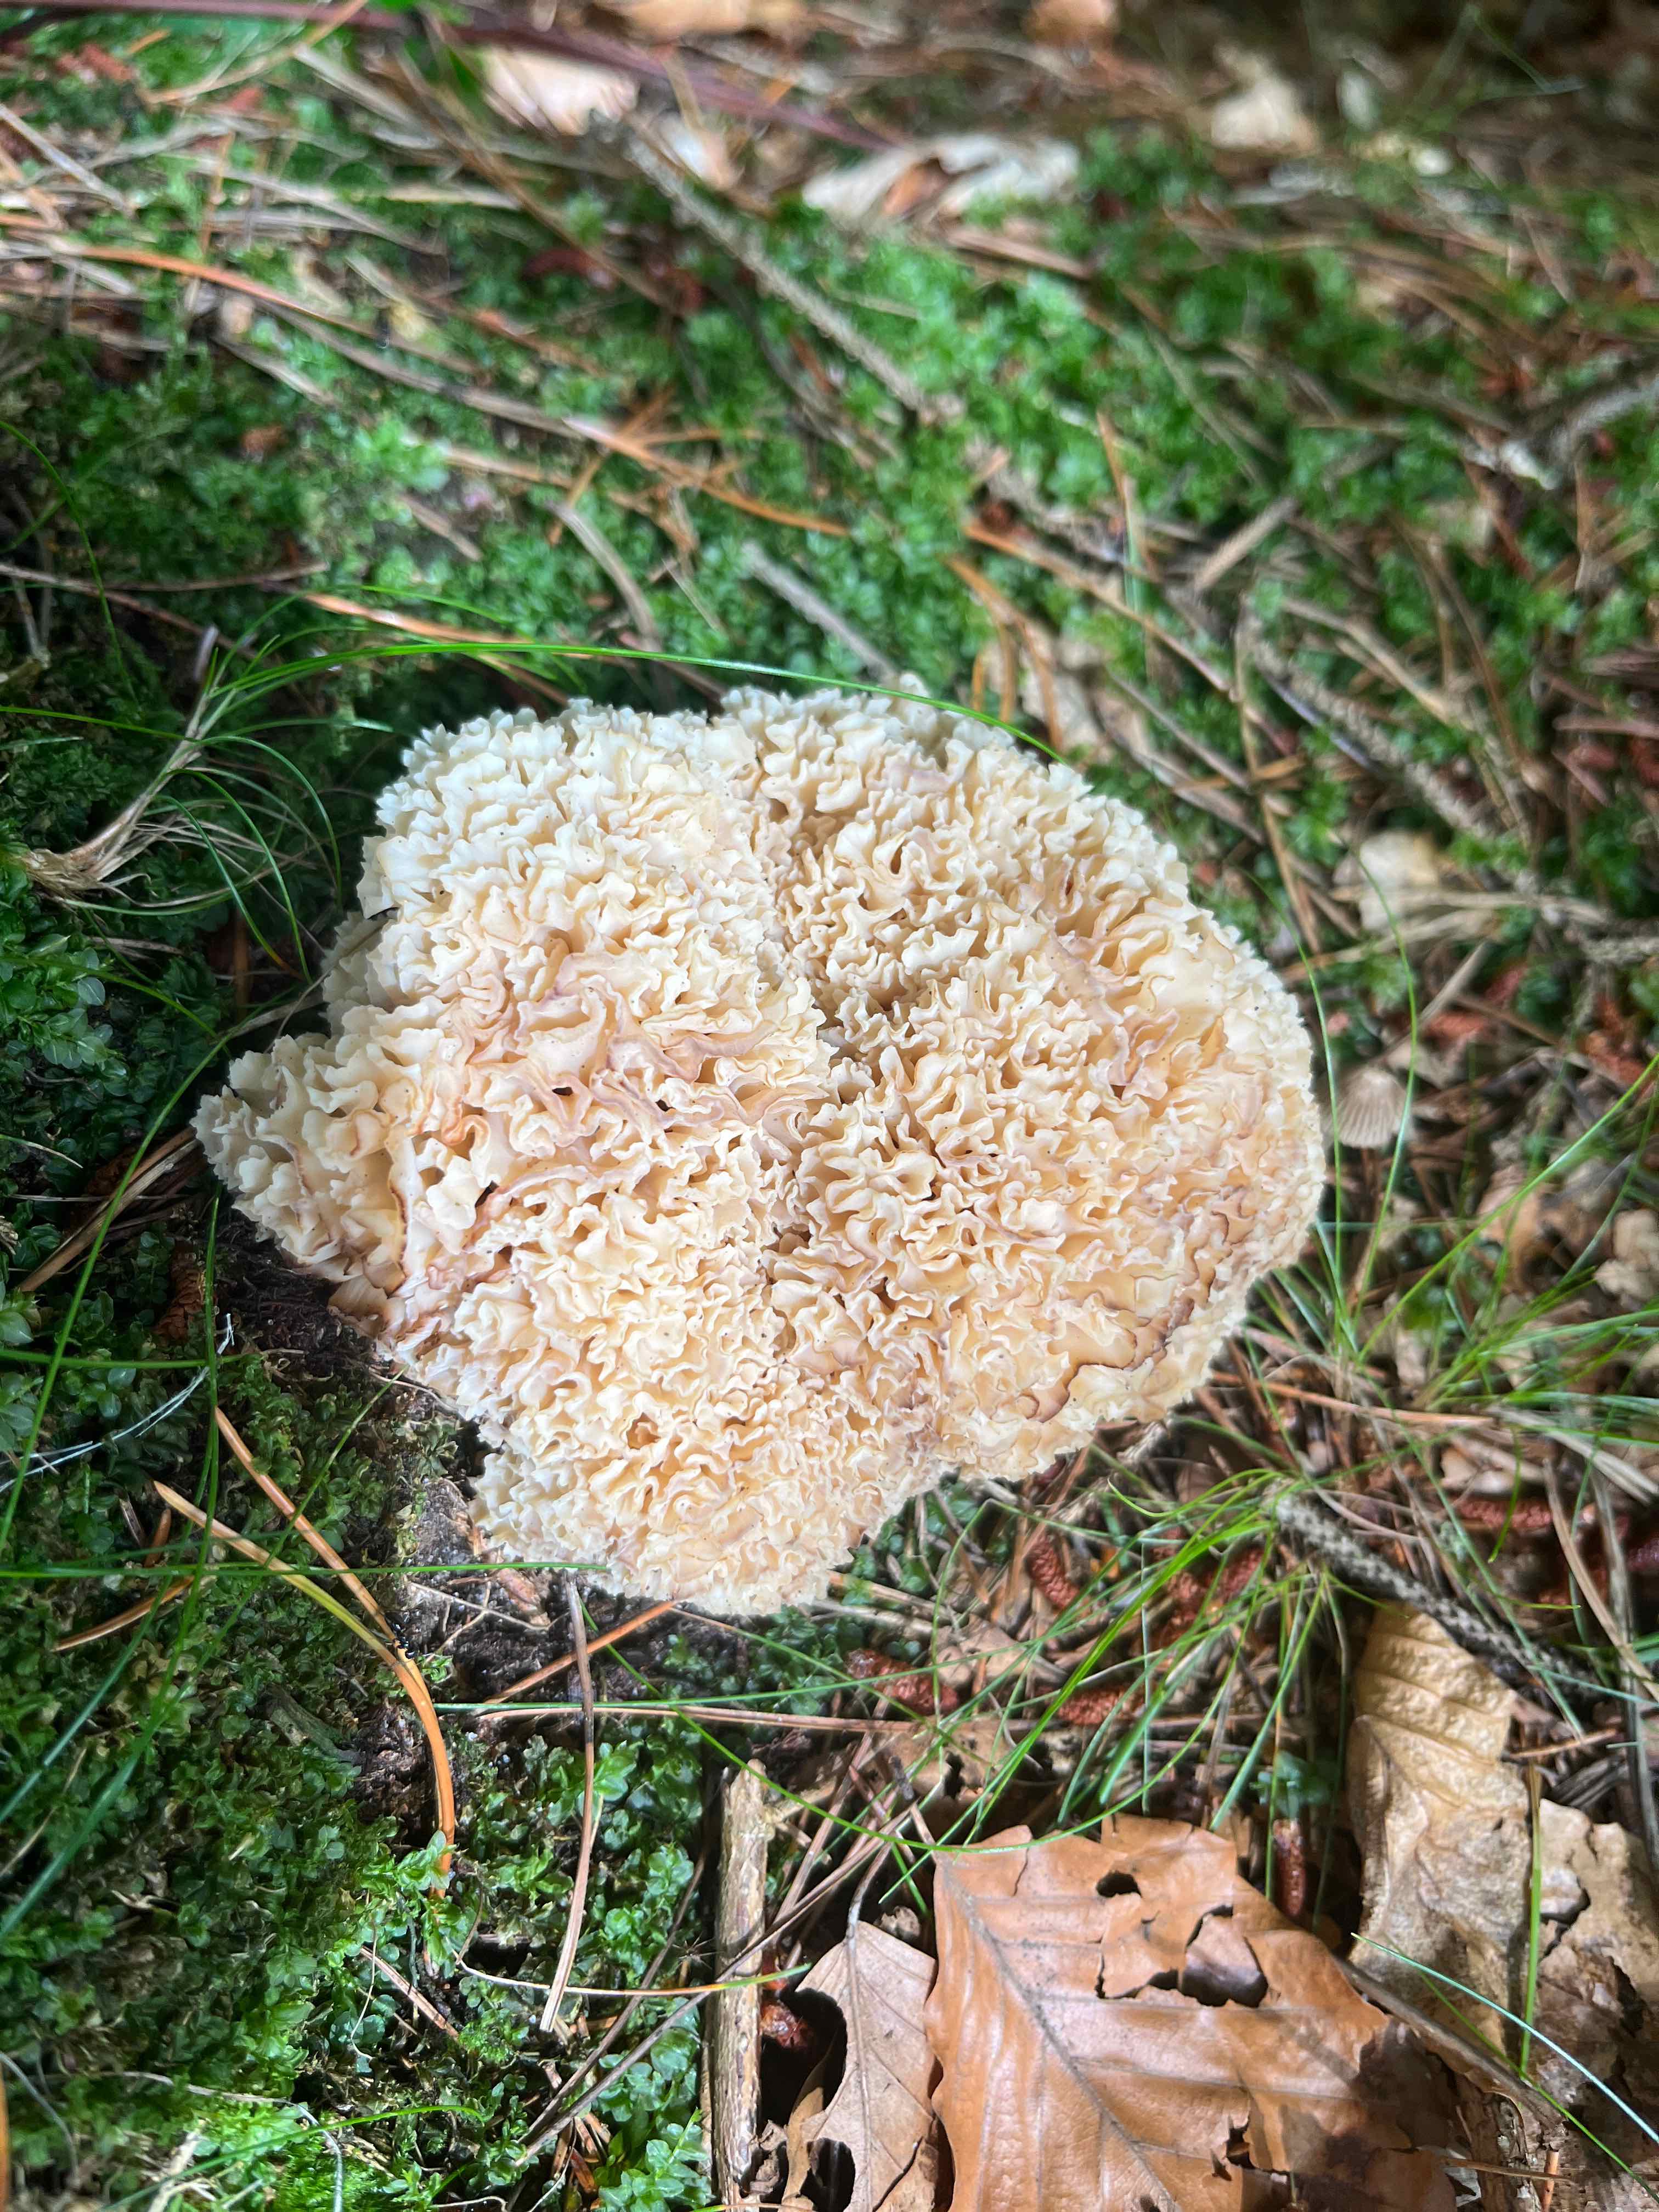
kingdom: Fungi
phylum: Basidiomycota
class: Agaricomycetes
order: Polyporales
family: Sparassidaceae
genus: Sparassis
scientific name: Sparassis crispa
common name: kruset blomkålssvamp
